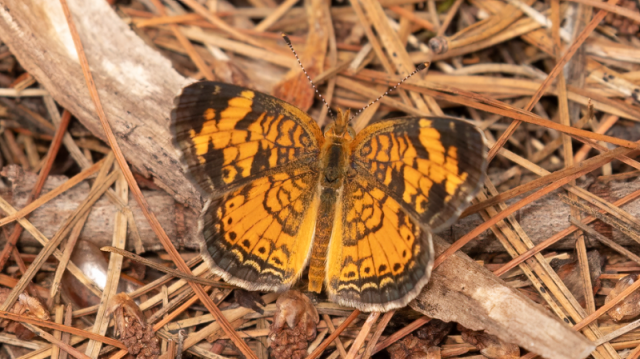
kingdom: Animalia
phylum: Arthropoda
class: Insecta
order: Lepidoptera
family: Nymphalidae
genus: Phyciodes
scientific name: Phyciodes tharos
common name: Pearl Crescent
